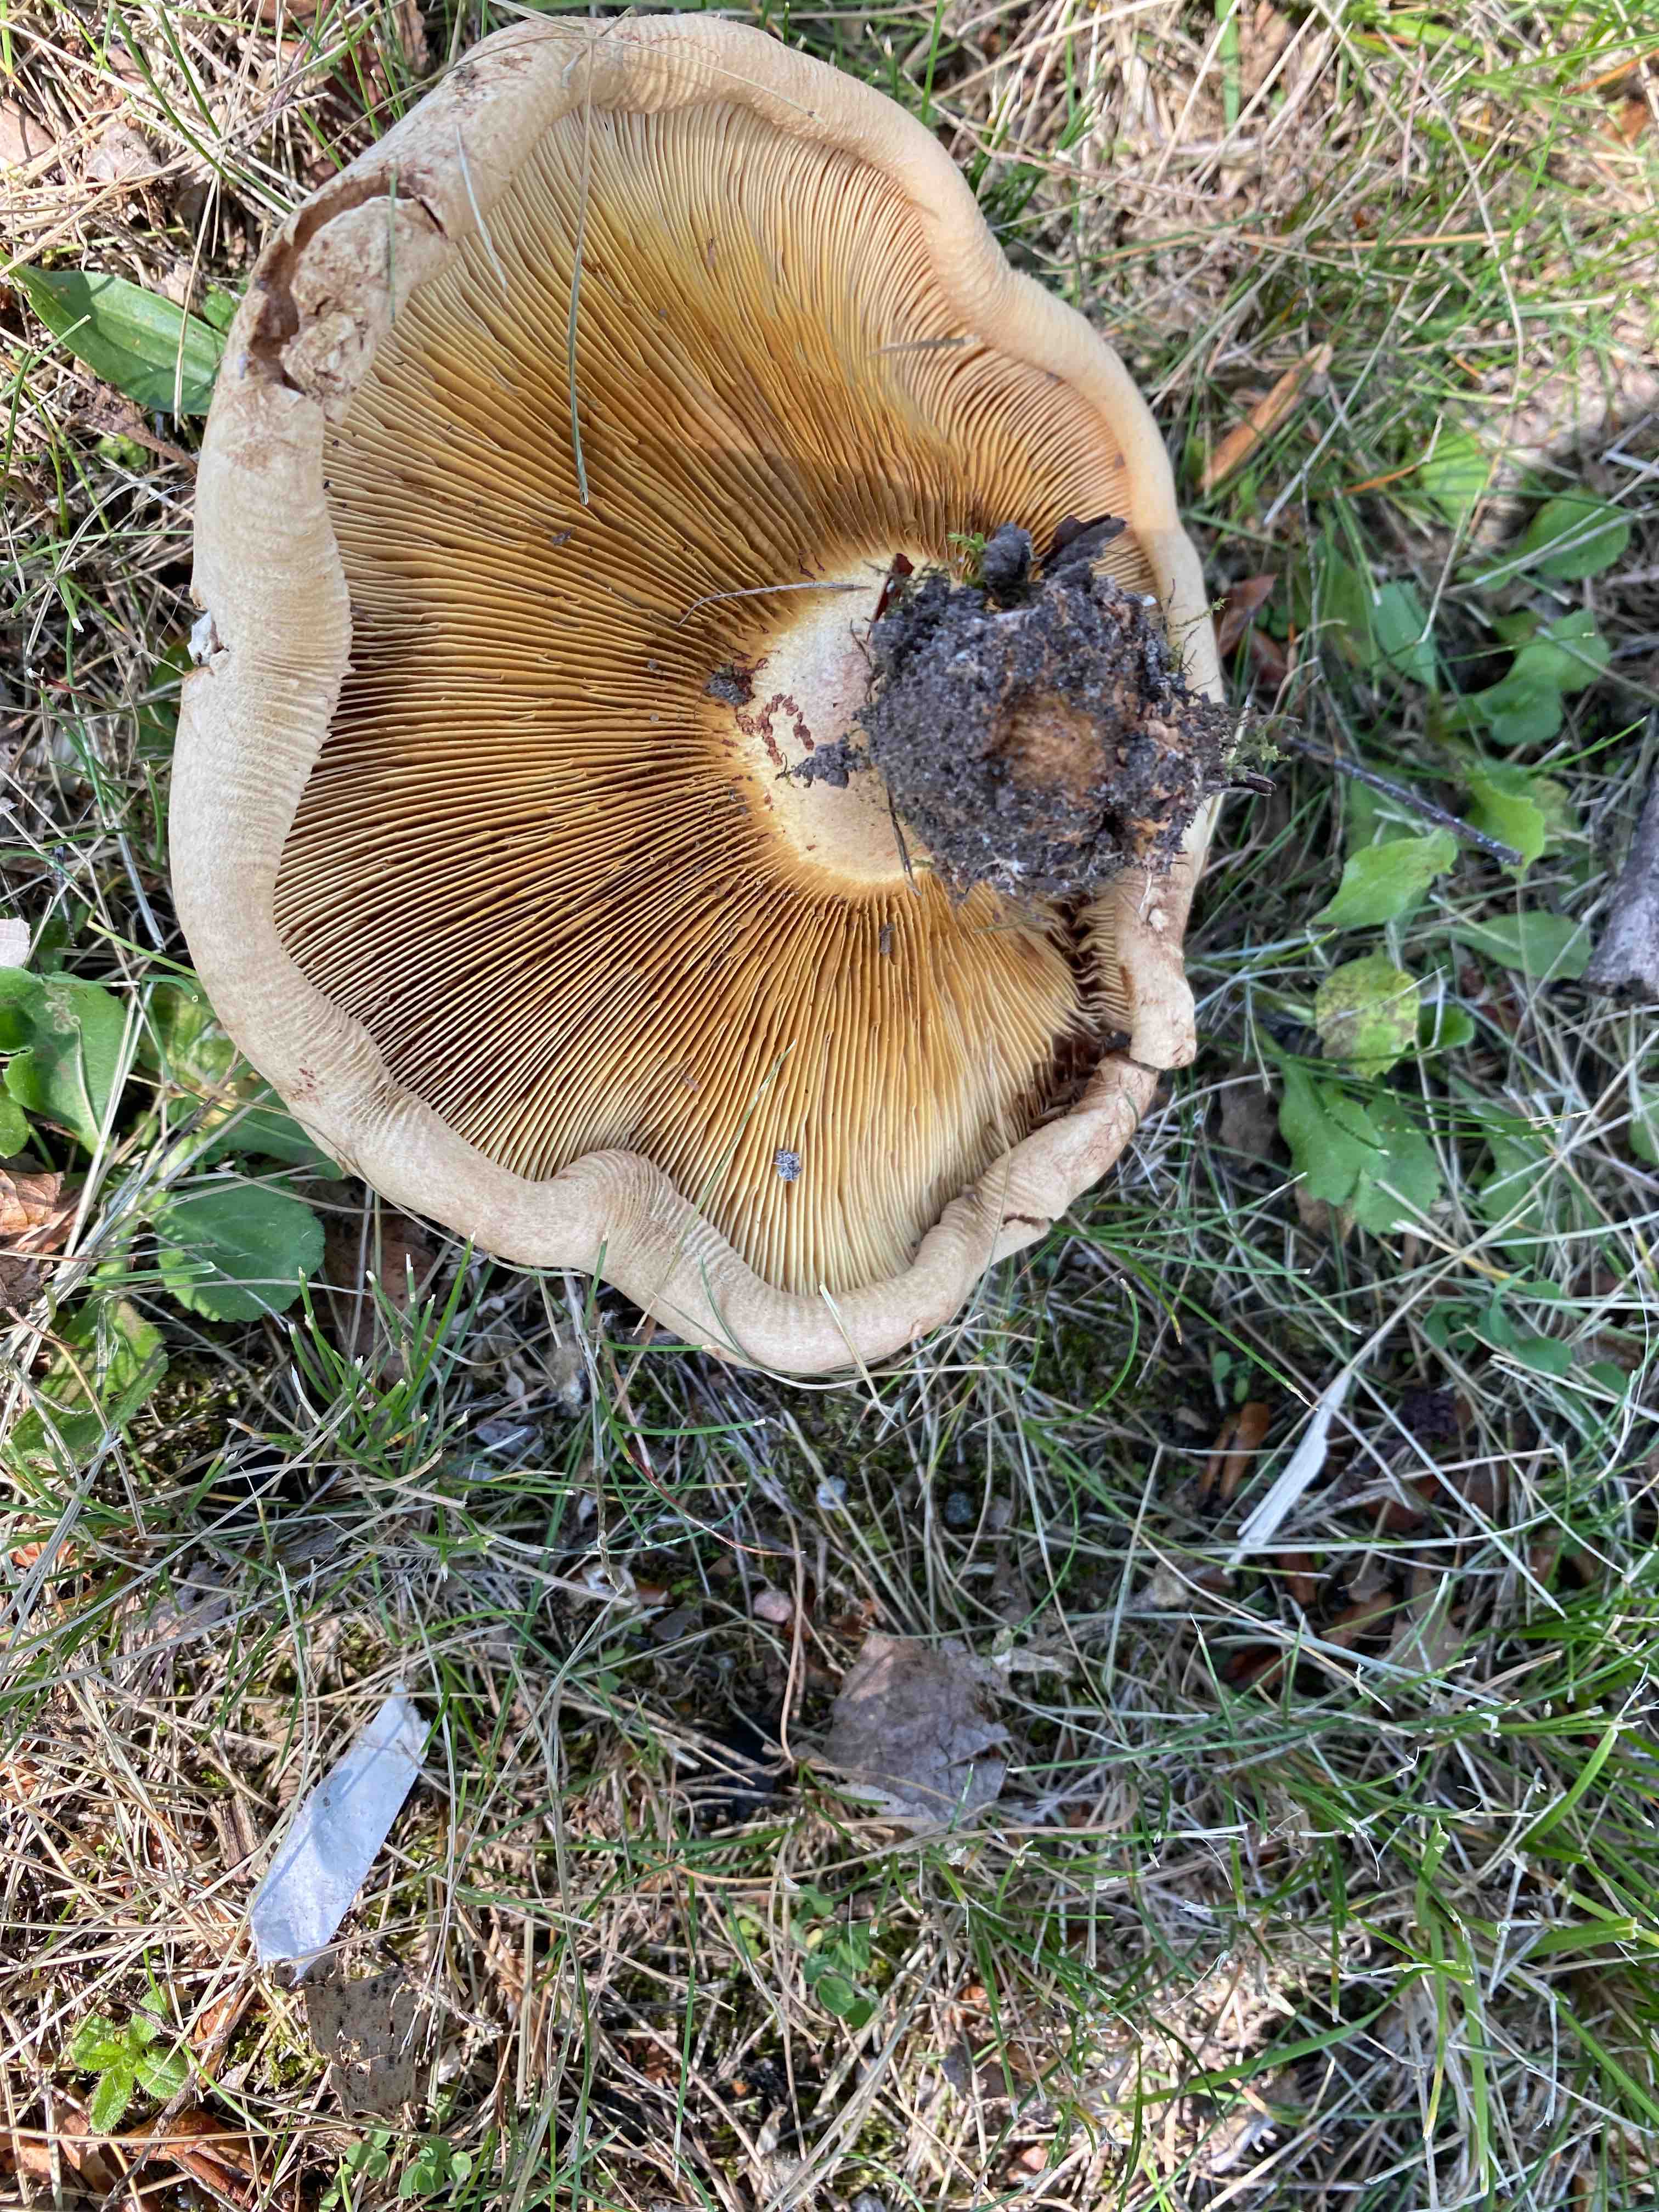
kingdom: Fungi
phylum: Basidiomycota
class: Agaricomycetes
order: Boletales
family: Paxillaceae
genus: Paxillus
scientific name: Paxillus involutus
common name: almindelig netbladhat
